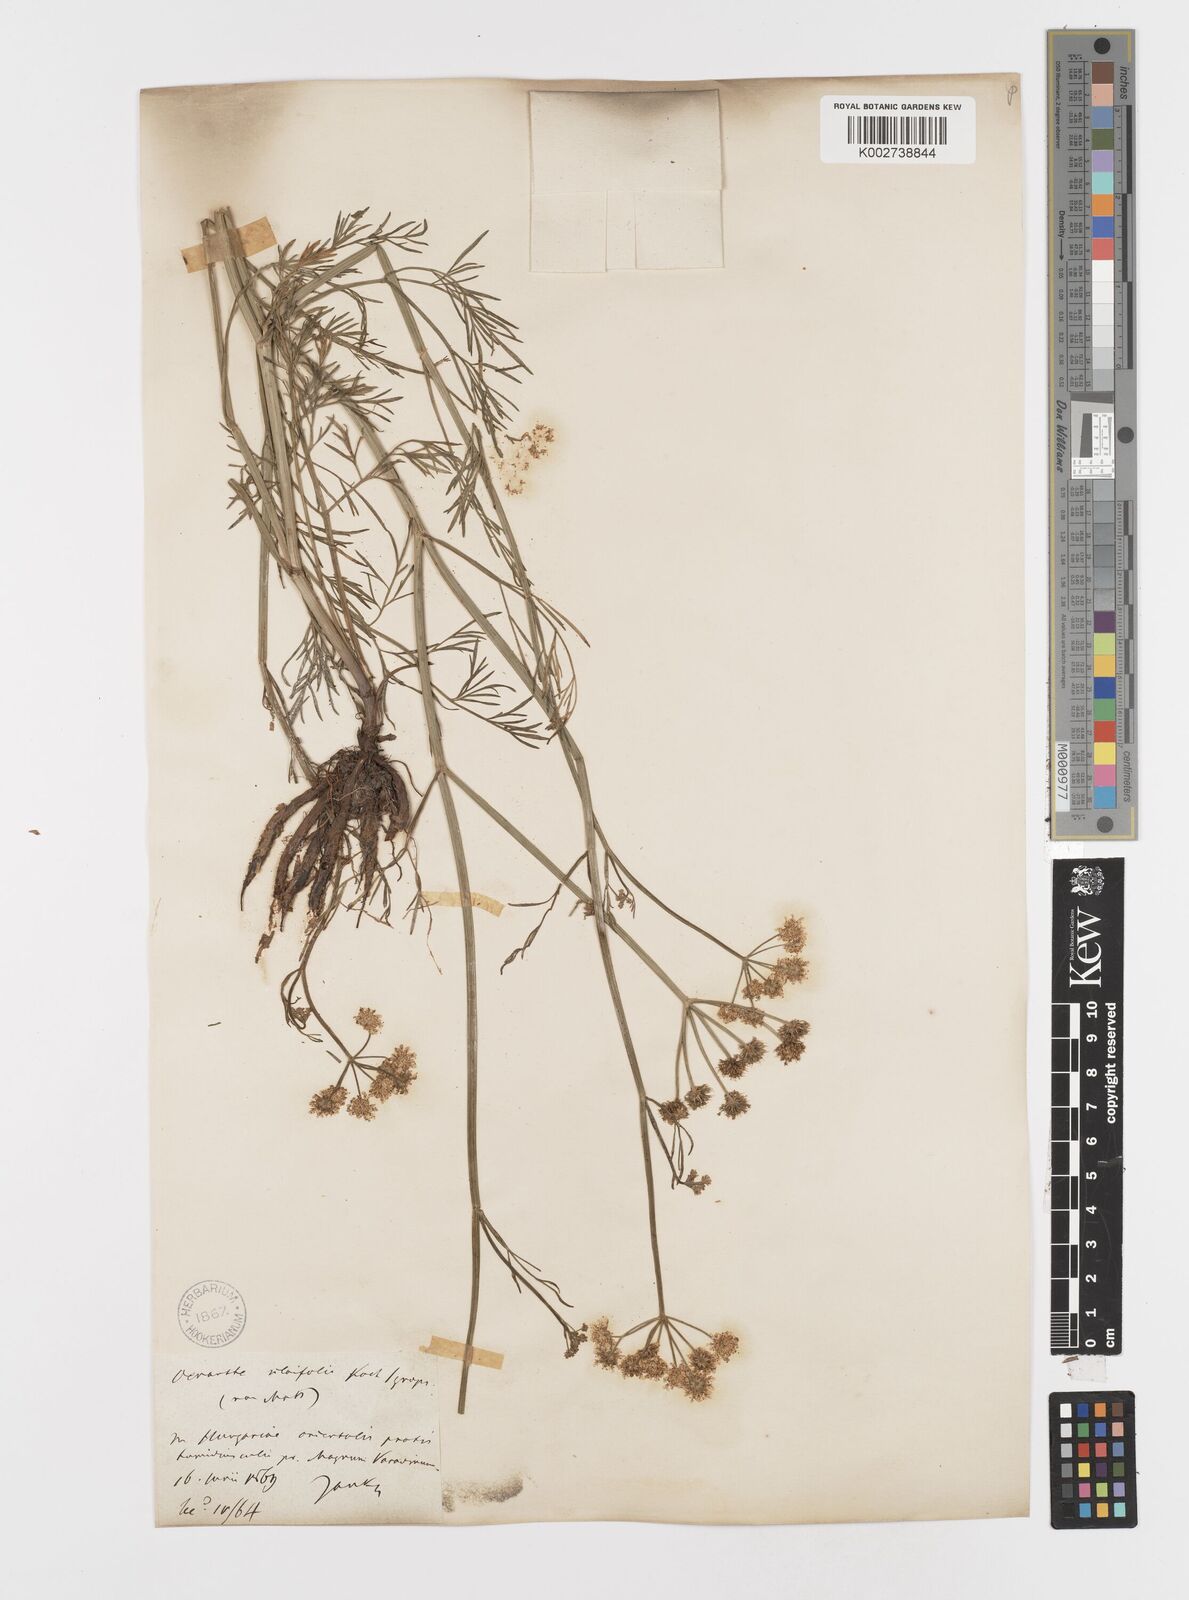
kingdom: Plantae
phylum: Tracheophyta
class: Magnoliopsida
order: Apiales
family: Apiaceae
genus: Oenanthe
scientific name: Oenanthe silaifolia
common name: Narrow-leaved water-dropwort
